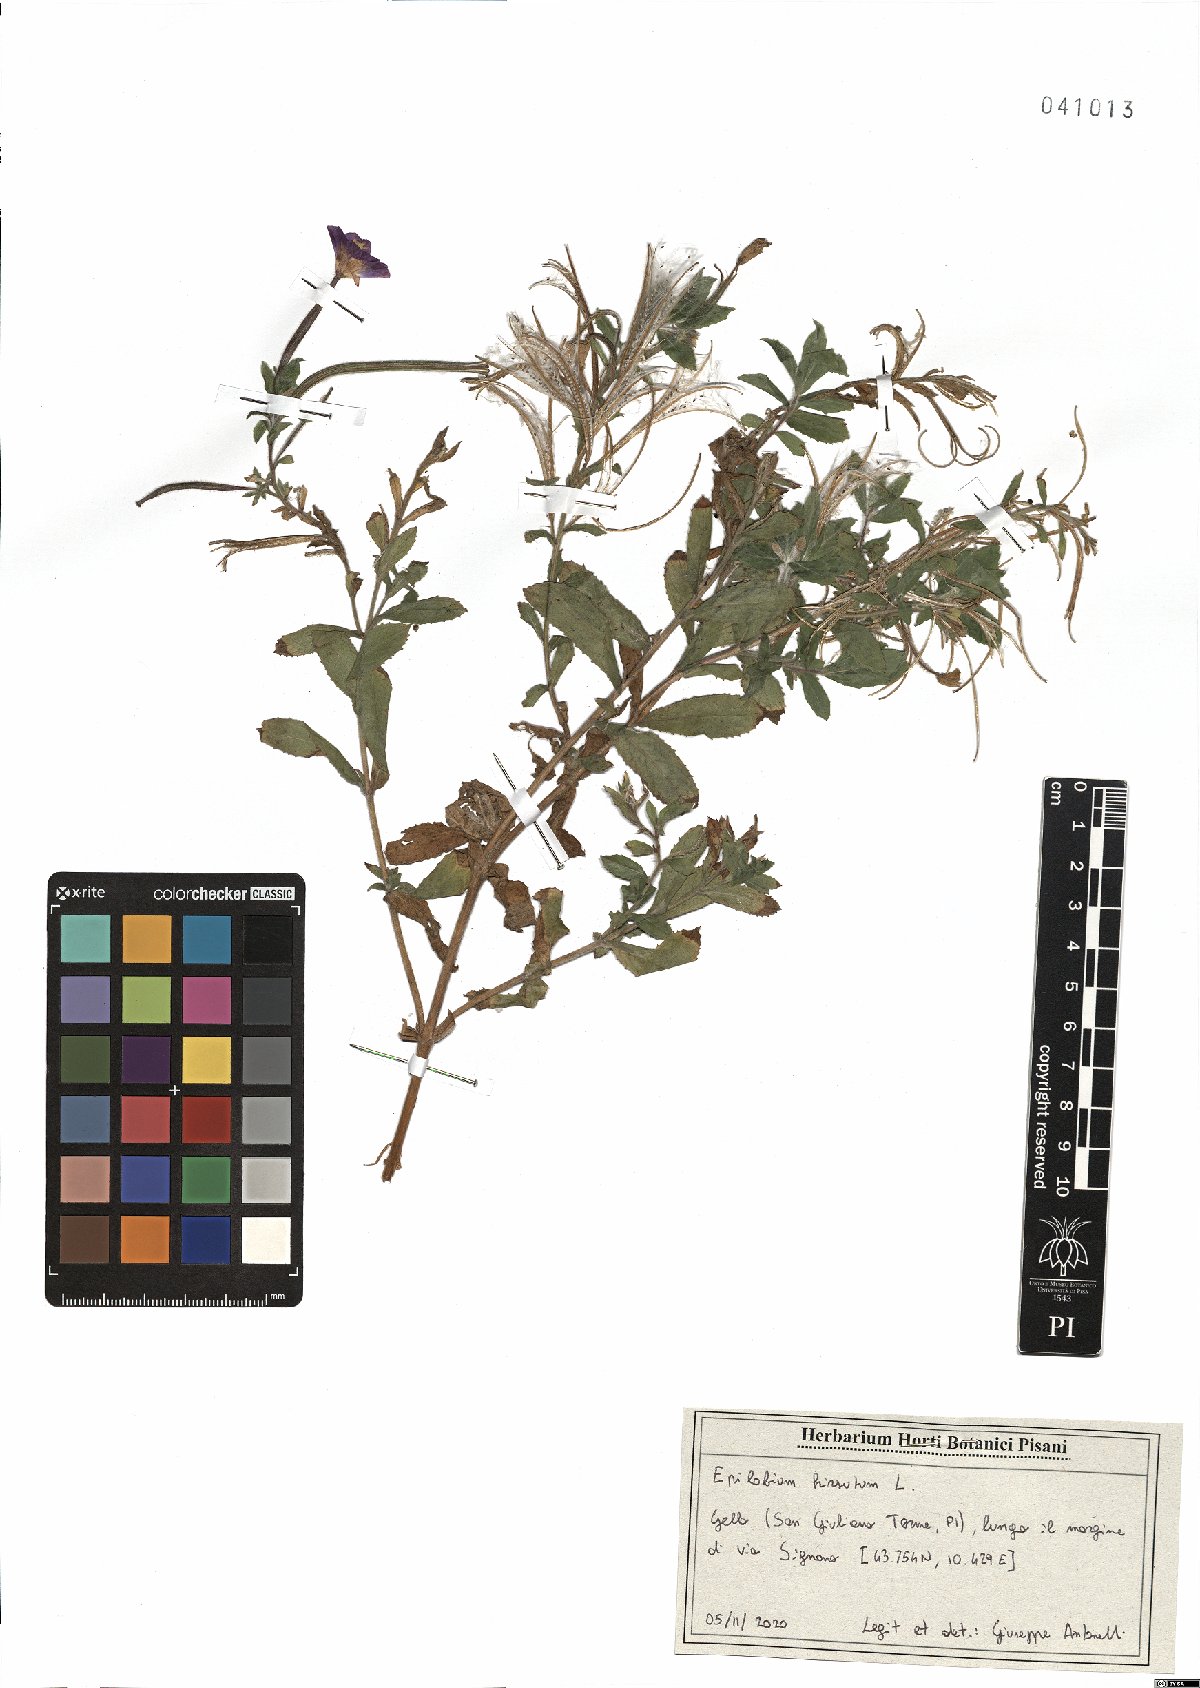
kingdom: Plantae
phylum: Tracheophyta
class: Magnoliopsida
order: Myrtales
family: Onagraceae
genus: Epilobium
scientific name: Epilobium hirsutum
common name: Great willowherb
